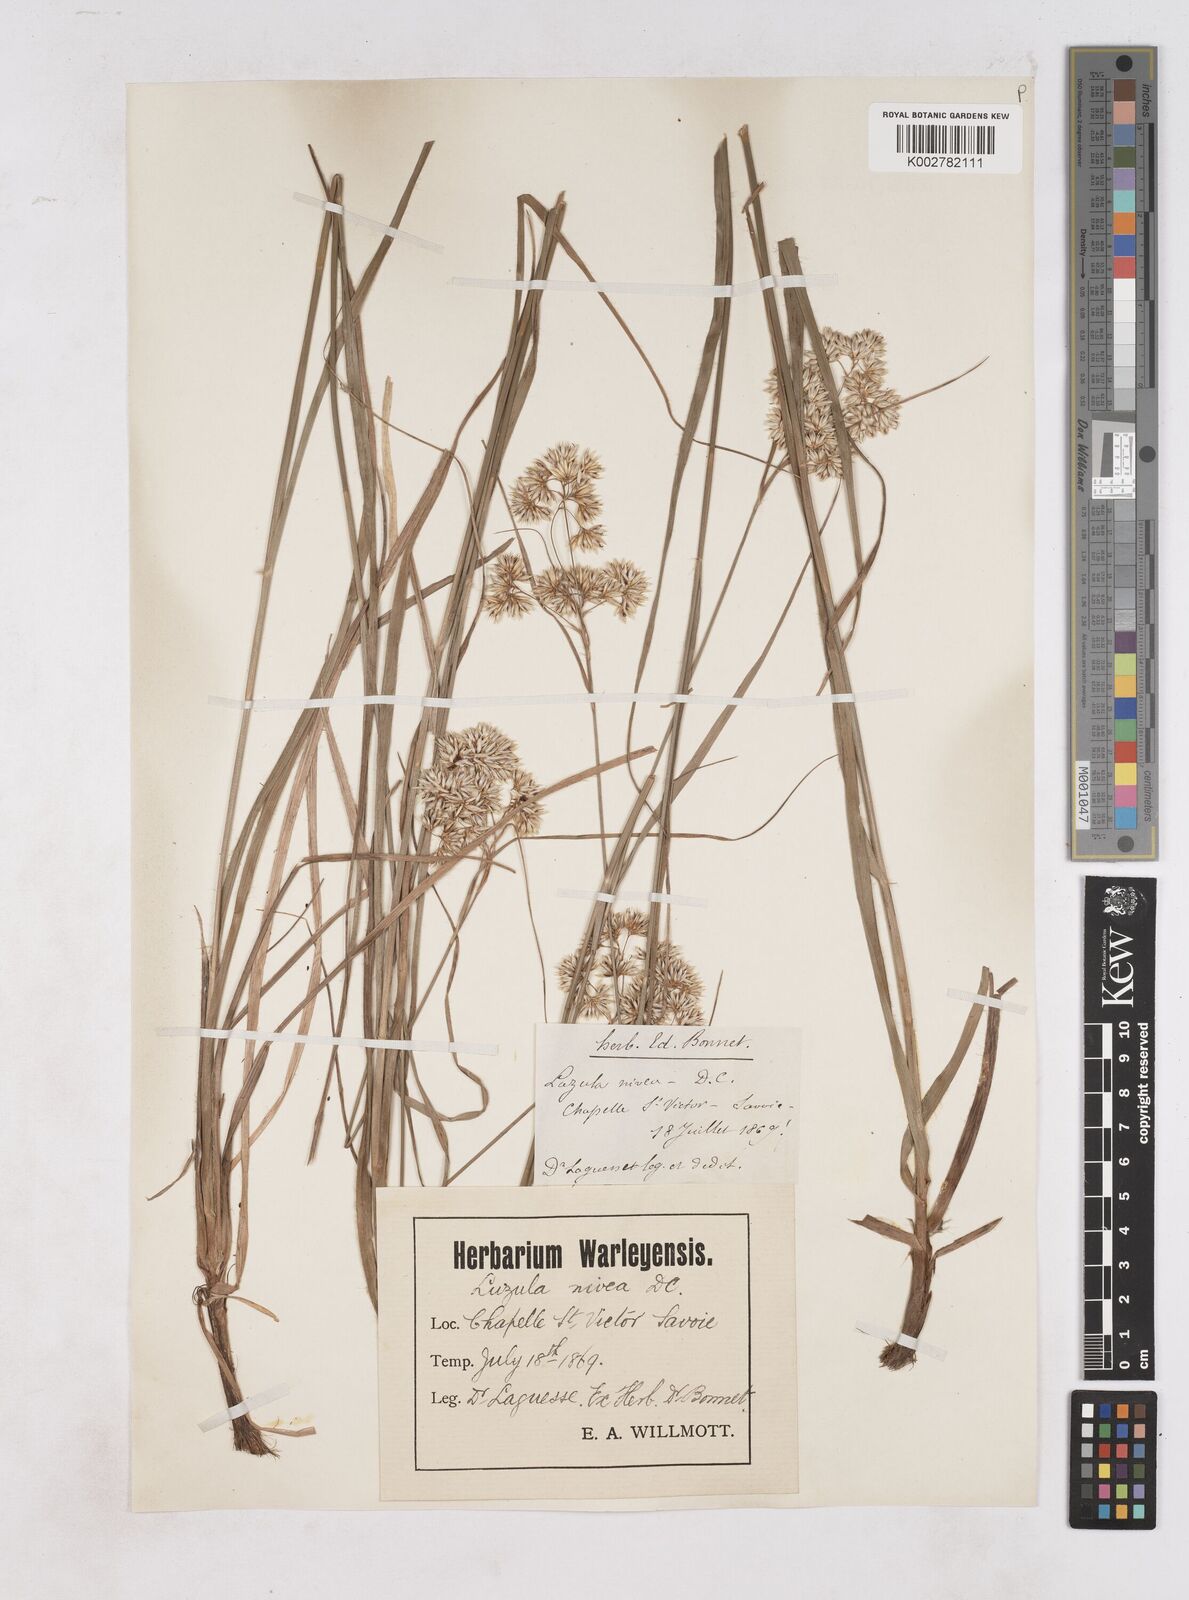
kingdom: Plantae
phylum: Tracheophyta
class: Liliopsida
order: Poales
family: Juncaceae
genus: Luzula
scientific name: Luzula nivea
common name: Snow-white wood-rush
